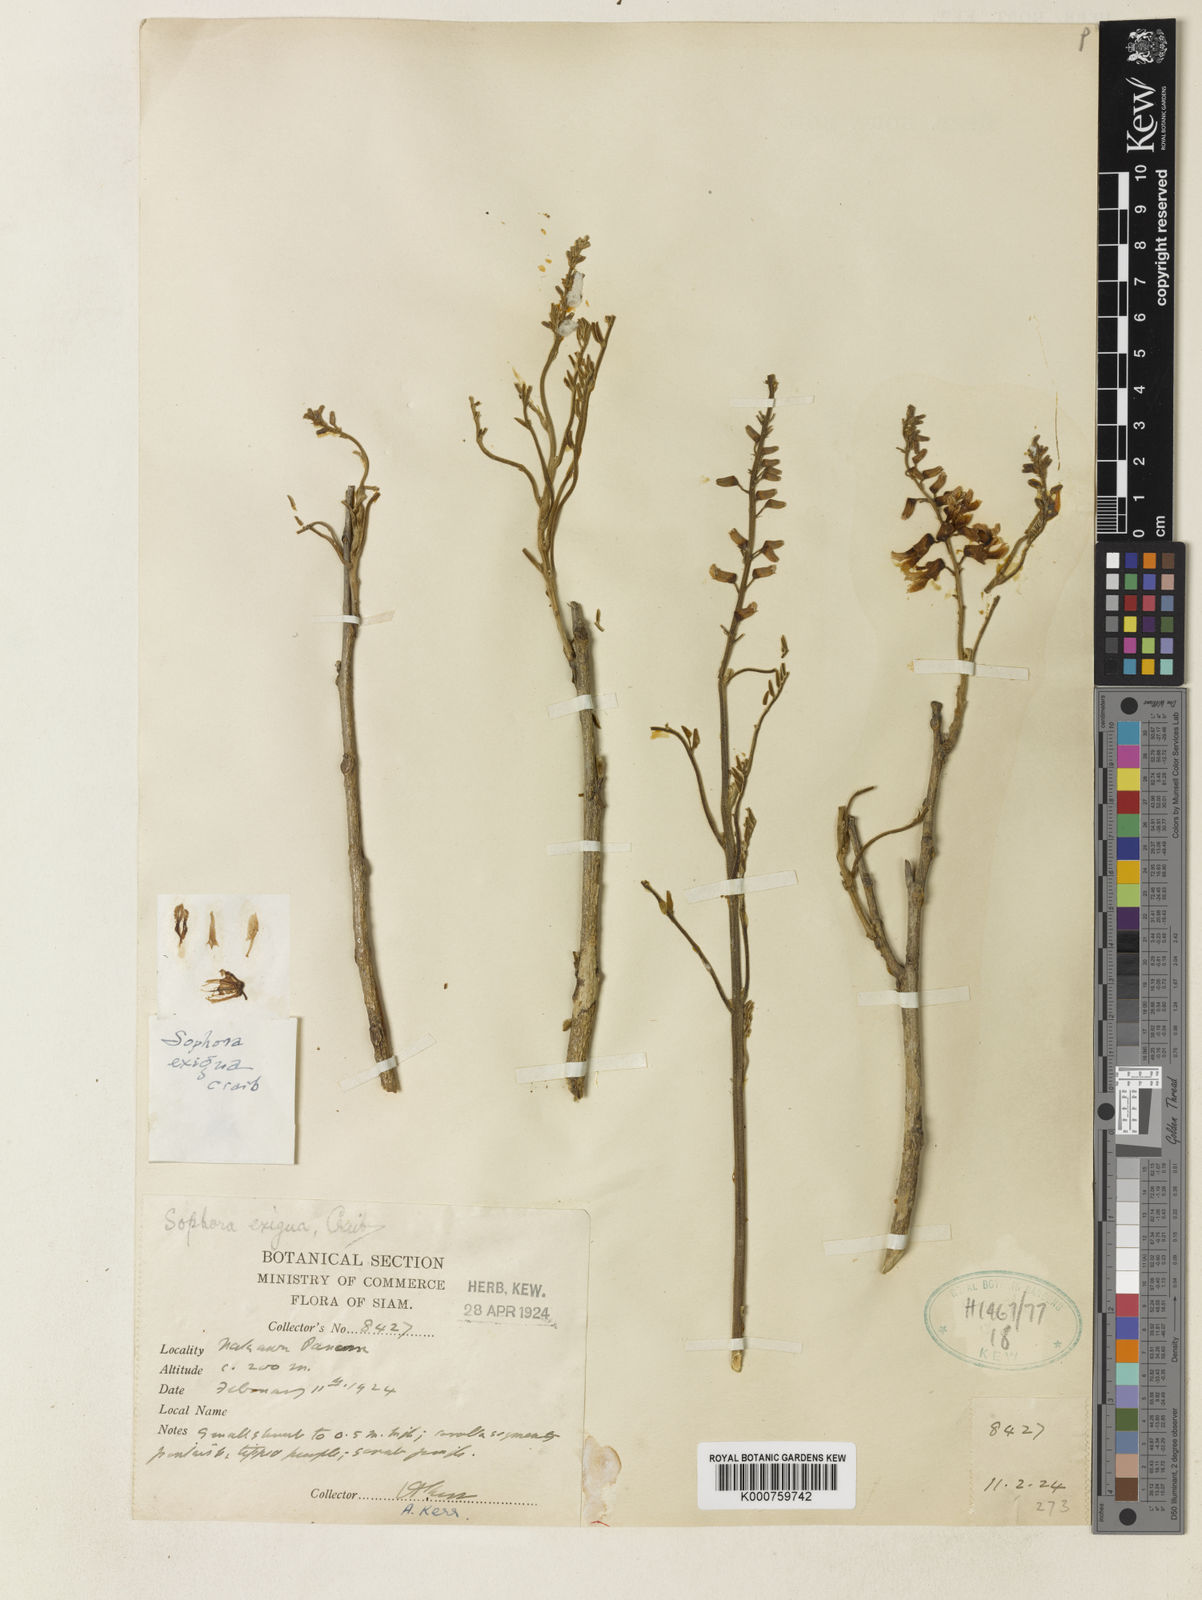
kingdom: Plantae
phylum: Tracheophyta
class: Magnoliopsida
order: Fabales
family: Fabaceae
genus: Sophora
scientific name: Sophora exigua
